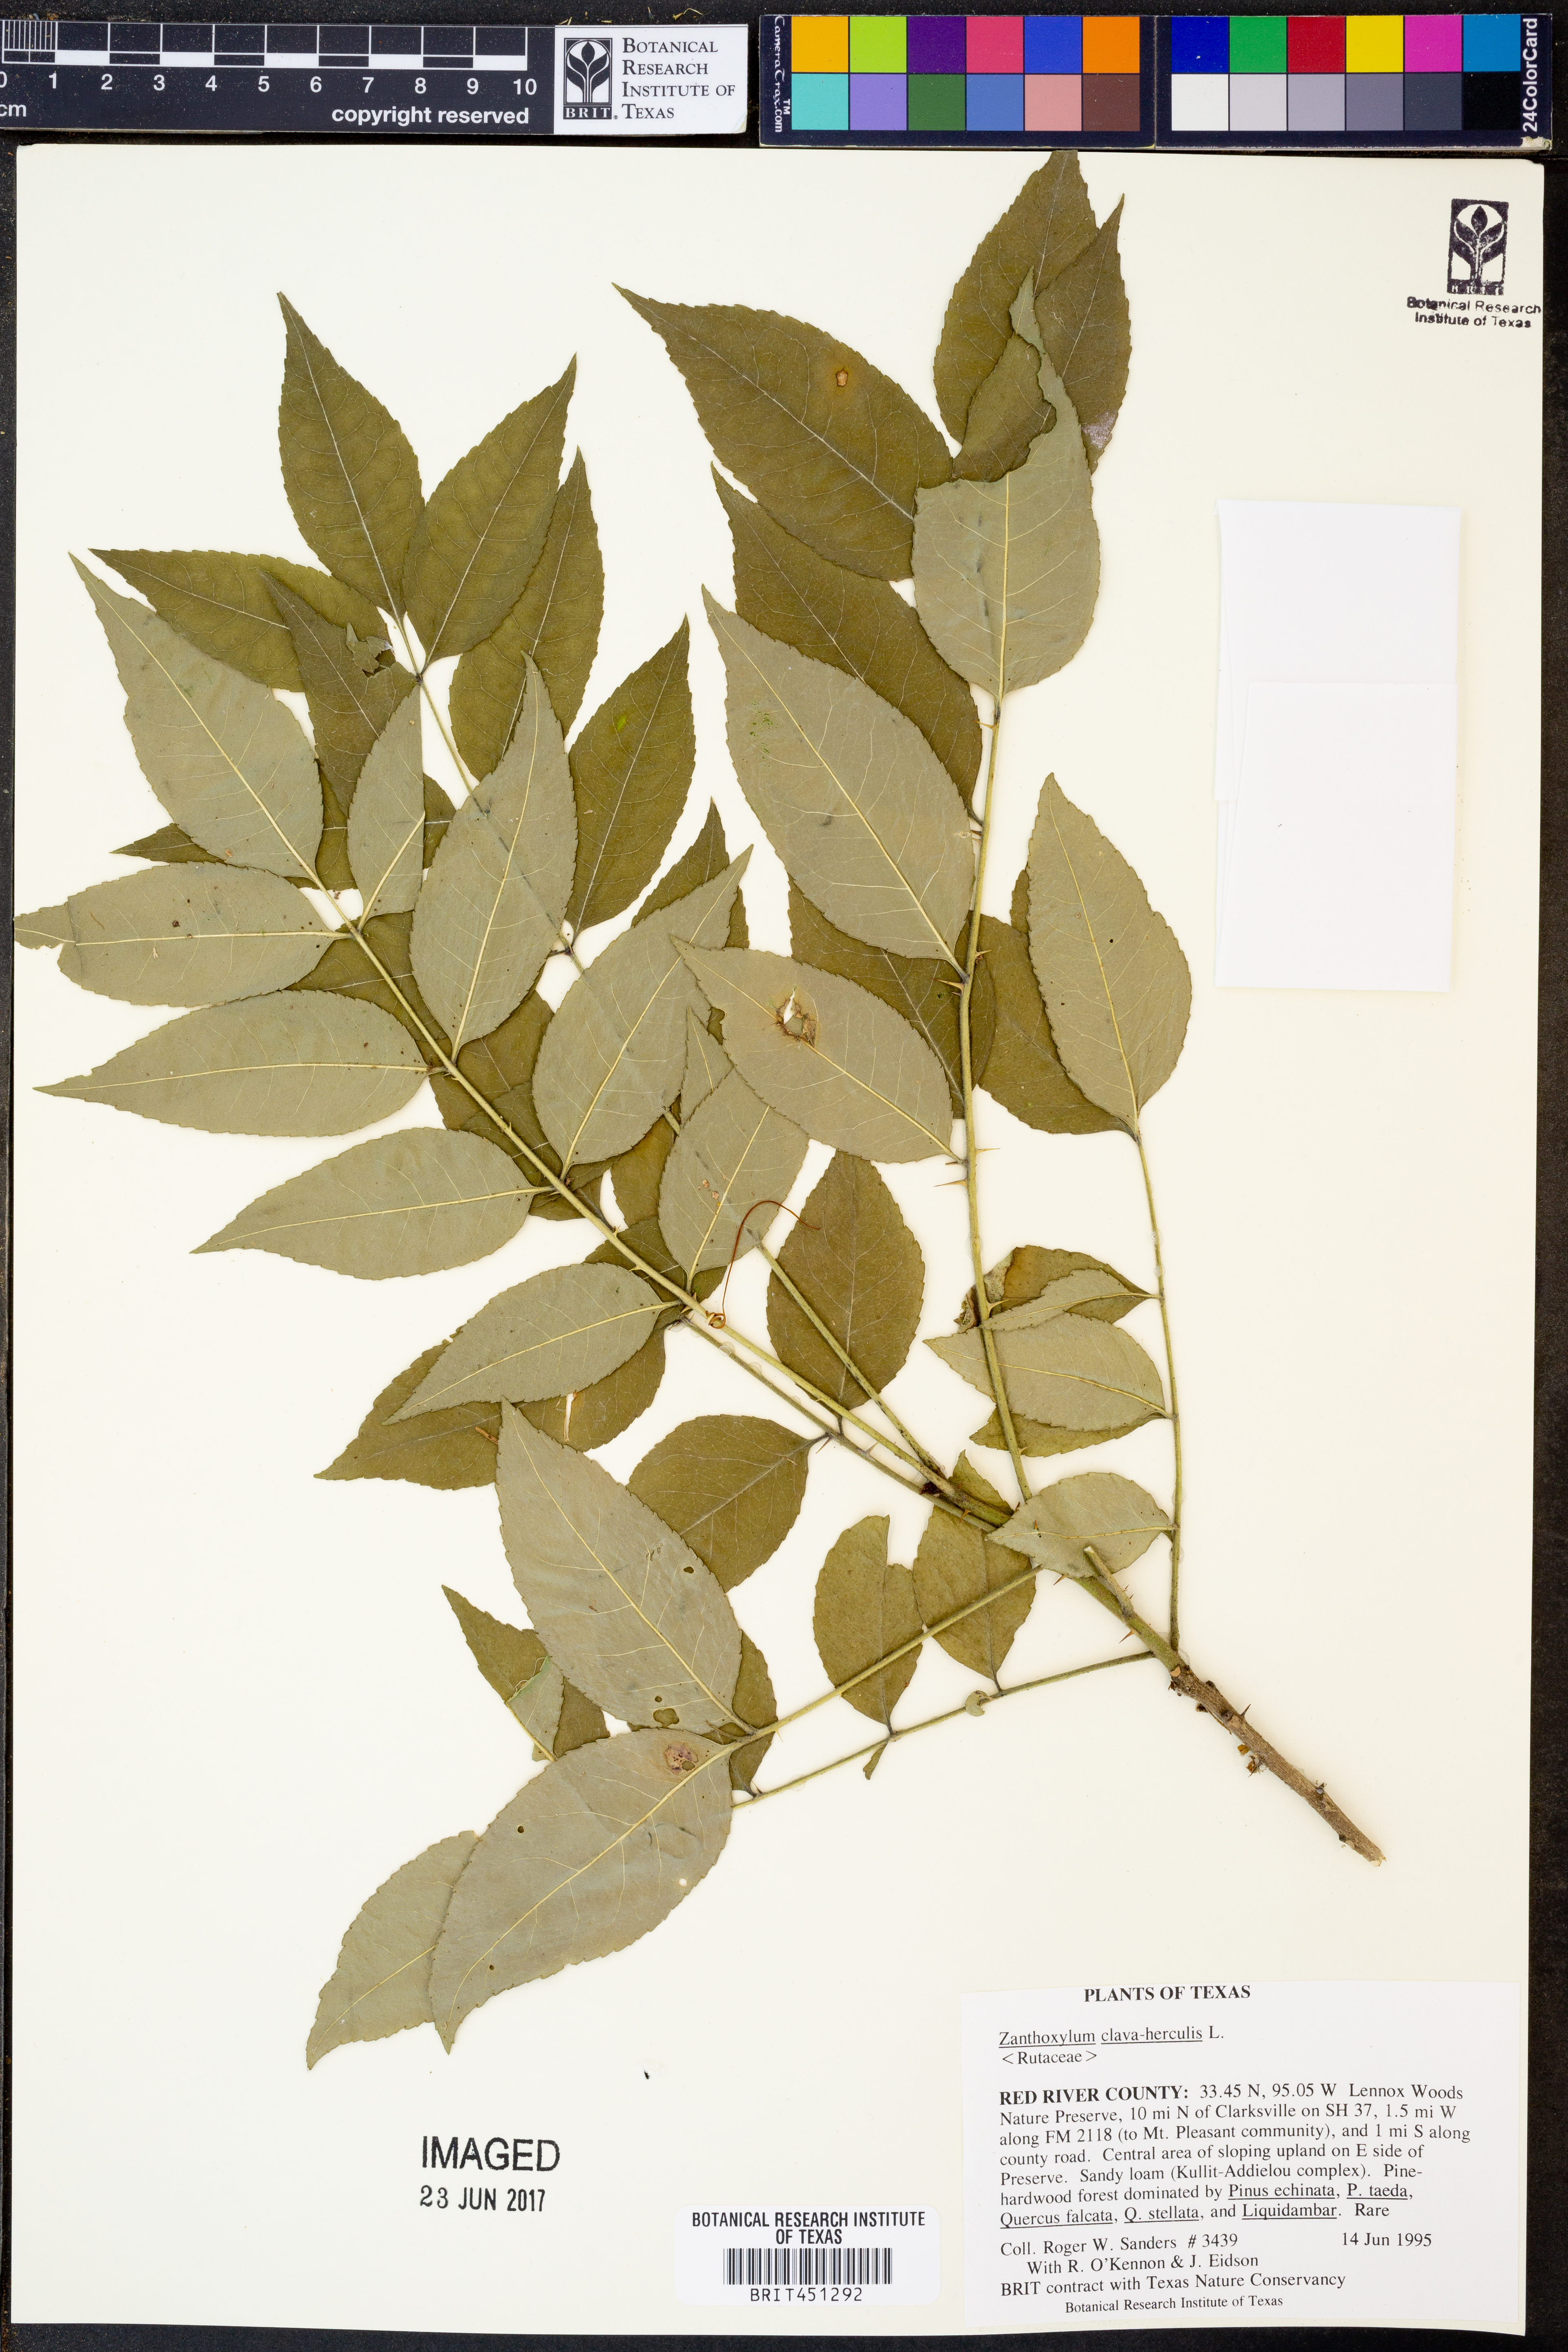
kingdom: Plantae
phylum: Tracheophyta
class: Magnoliopsida
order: Sapindales
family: Rutaceae
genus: Zanthoxylum
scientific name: Zanthoxylum avicennae
